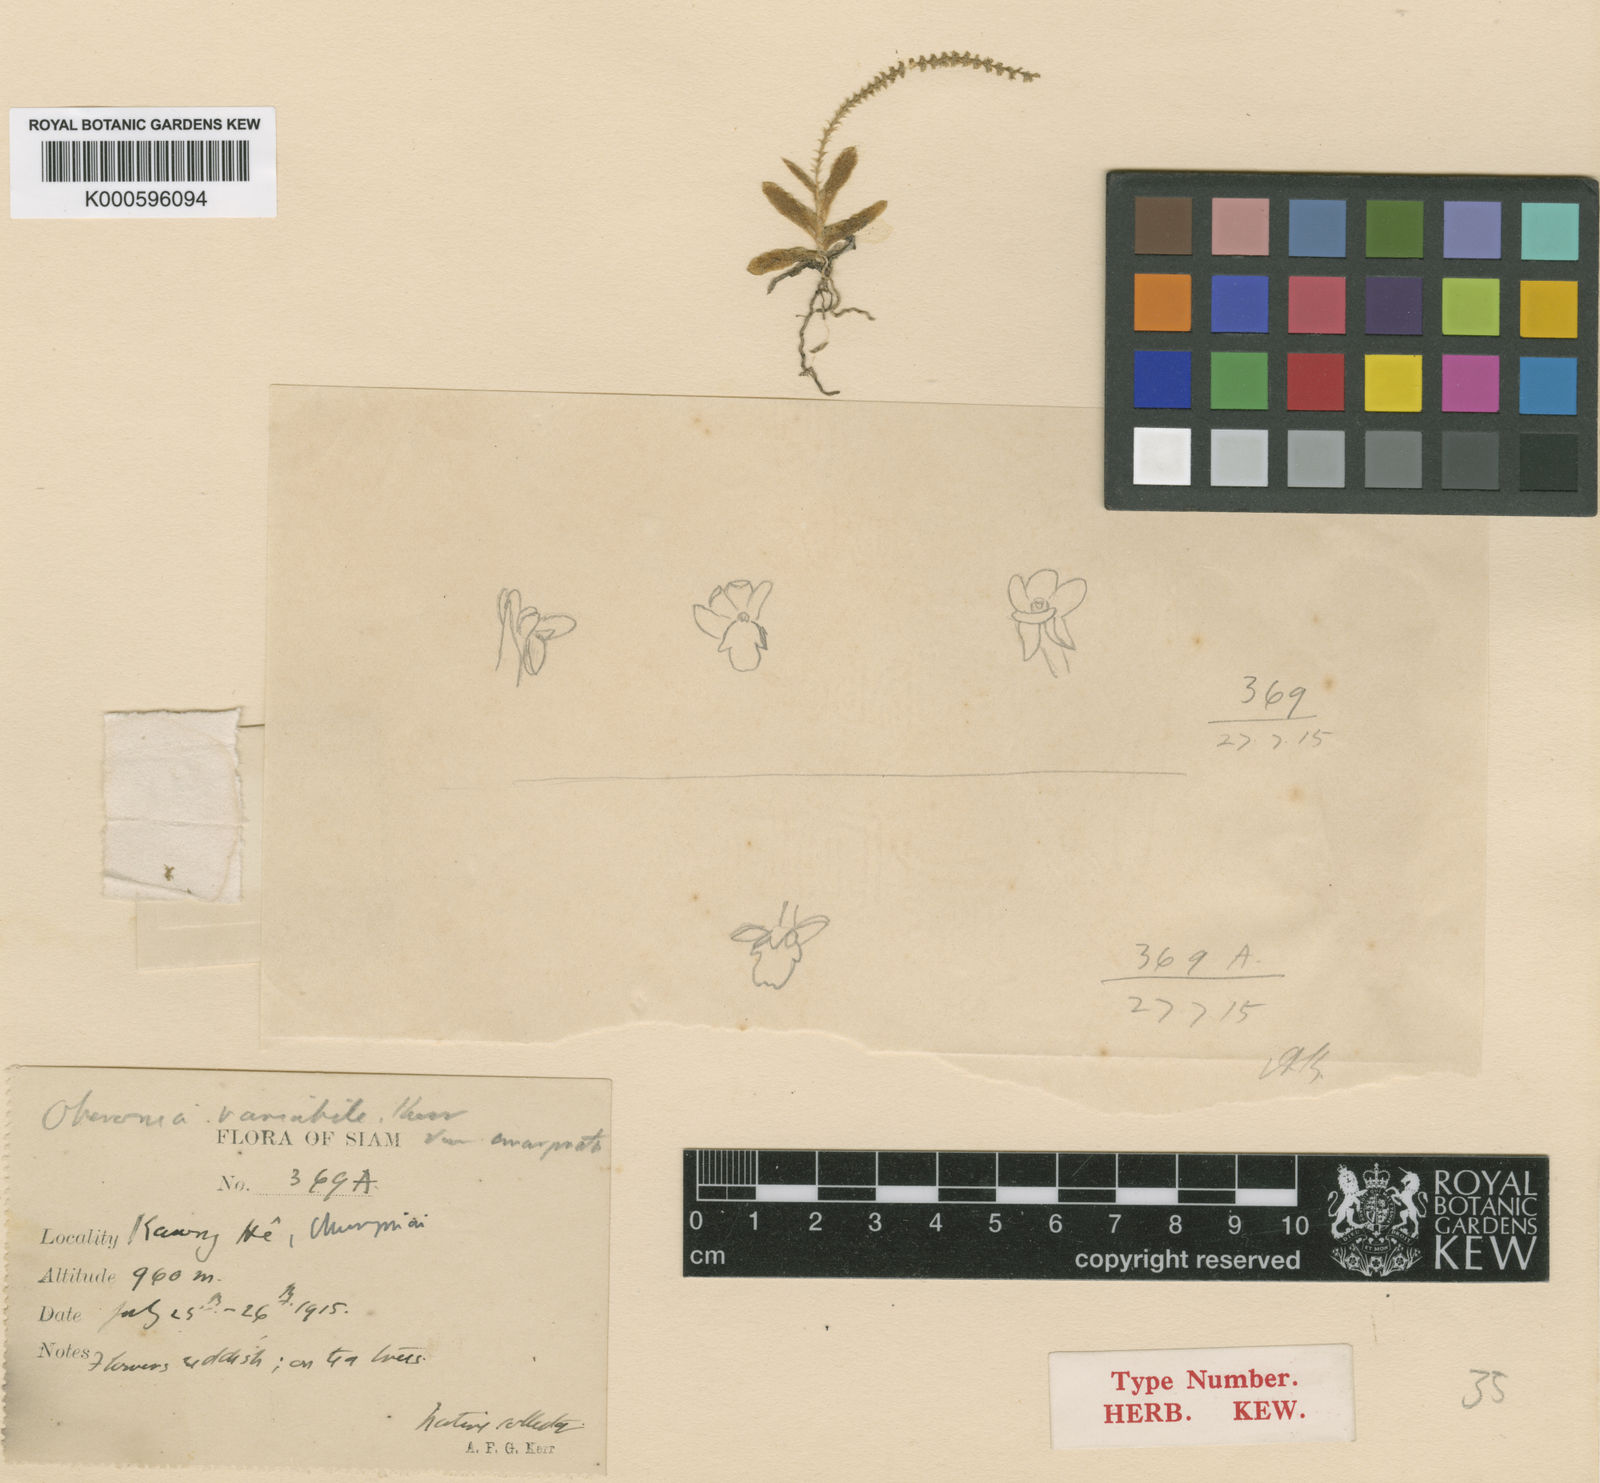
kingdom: Plantae
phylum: Tracheophyta
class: Liliopsida
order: Asparagales
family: Orchidaceae
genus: Oberonia
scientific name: Oberonia japonica
